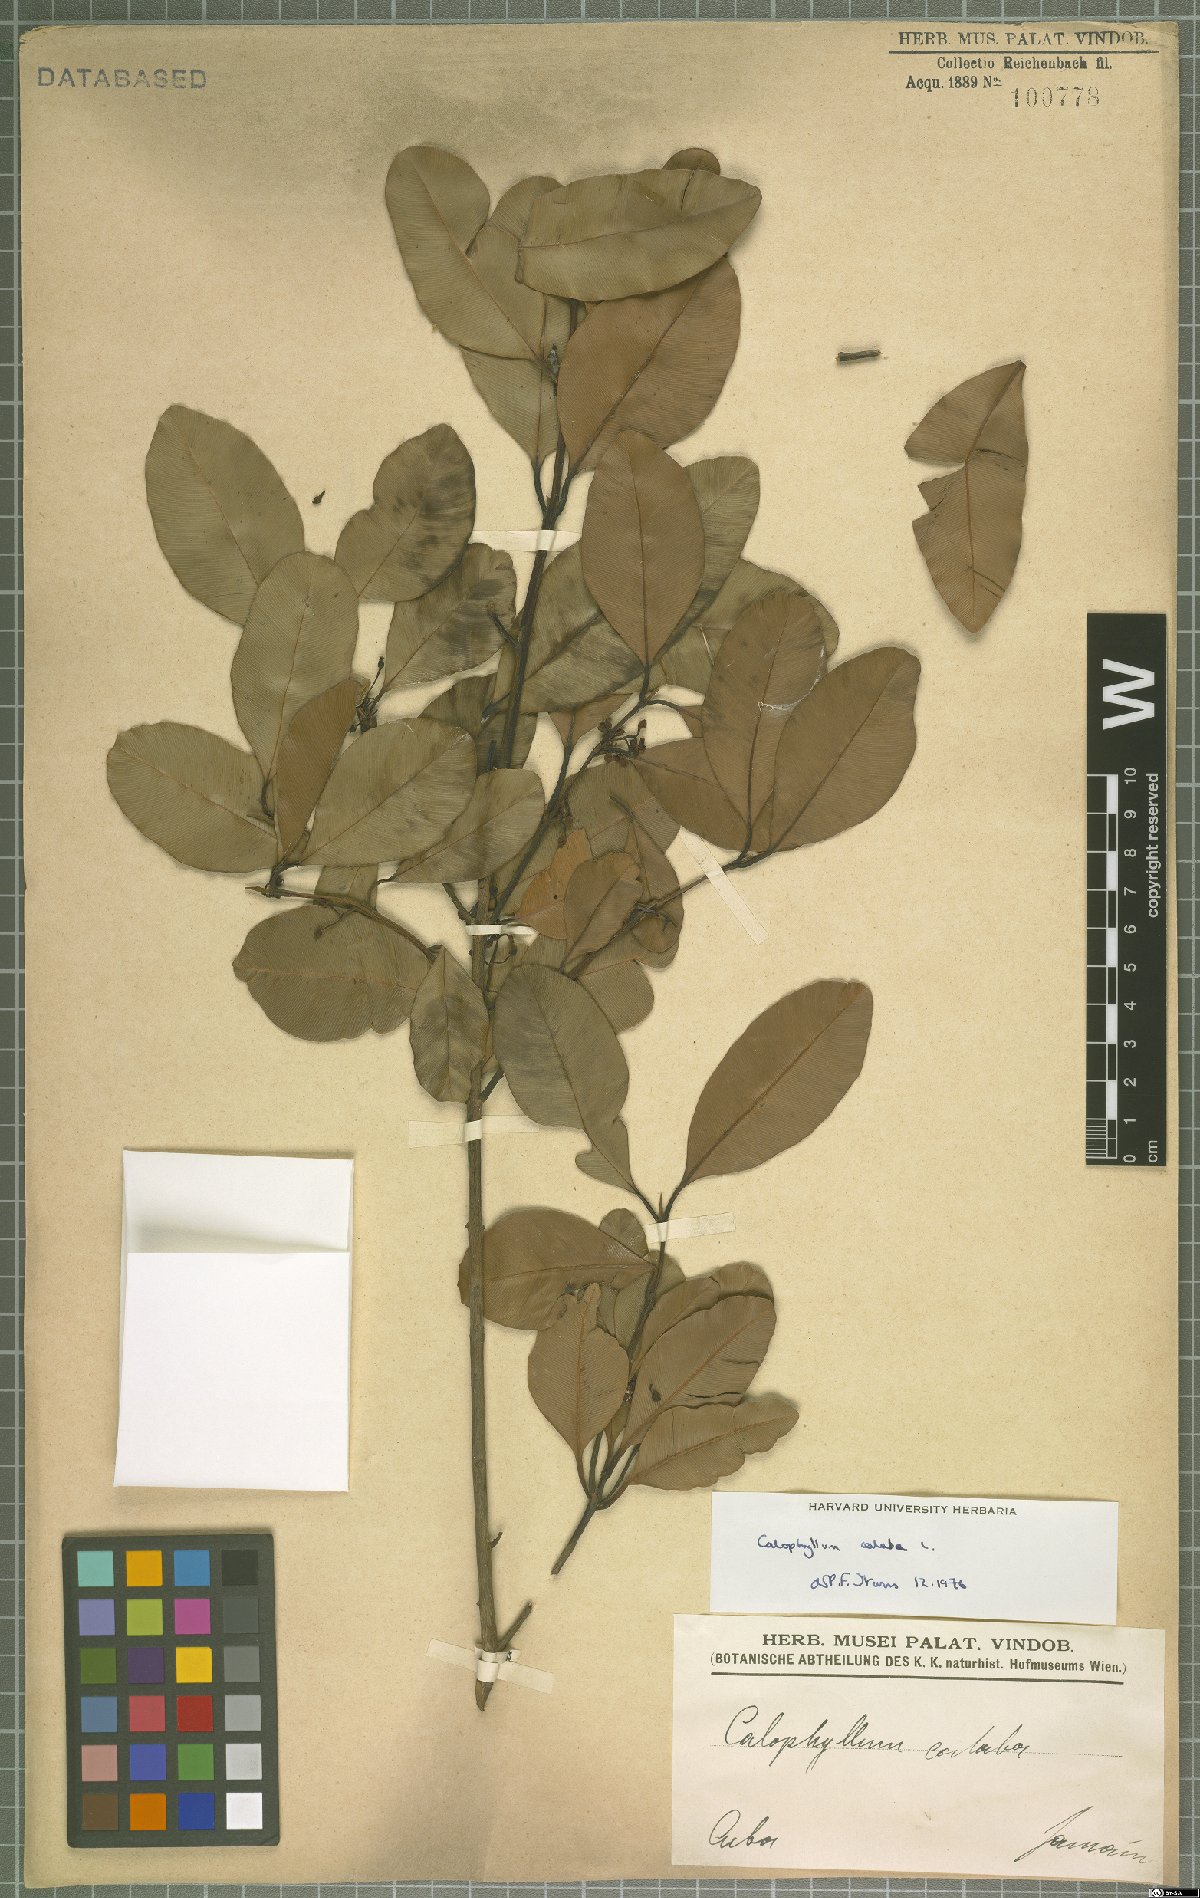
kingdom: Plantae
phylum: Tracheophyta
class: Magnoliopsida
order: Malpighiales
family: Calophyllaceae
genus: Calophyllum
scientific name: Calophyllum calaba
